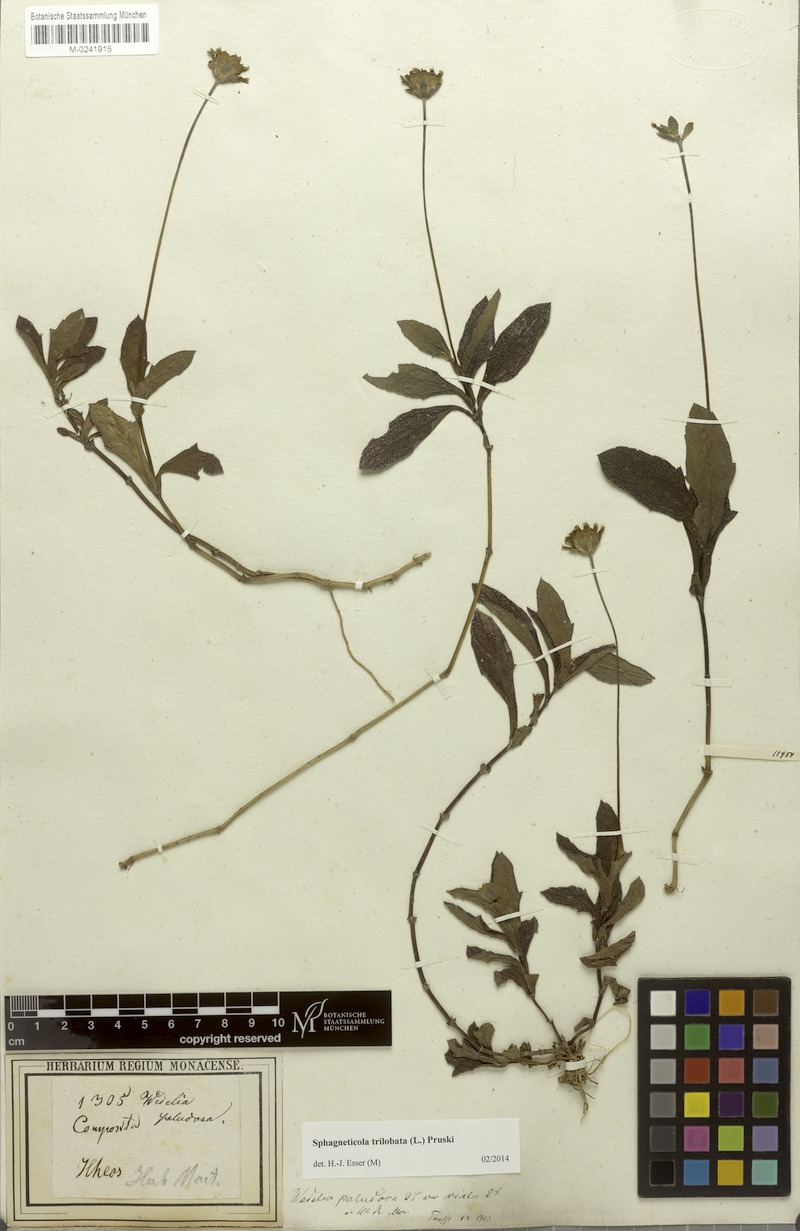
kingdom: Plantae
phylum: Tracheophyta
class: Magnoliopsida
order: Asterales
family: Asteraceae
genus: Sphagneticola
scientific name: Sphagneticola trilobata
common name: Bay biscayne creeping-oxeye
